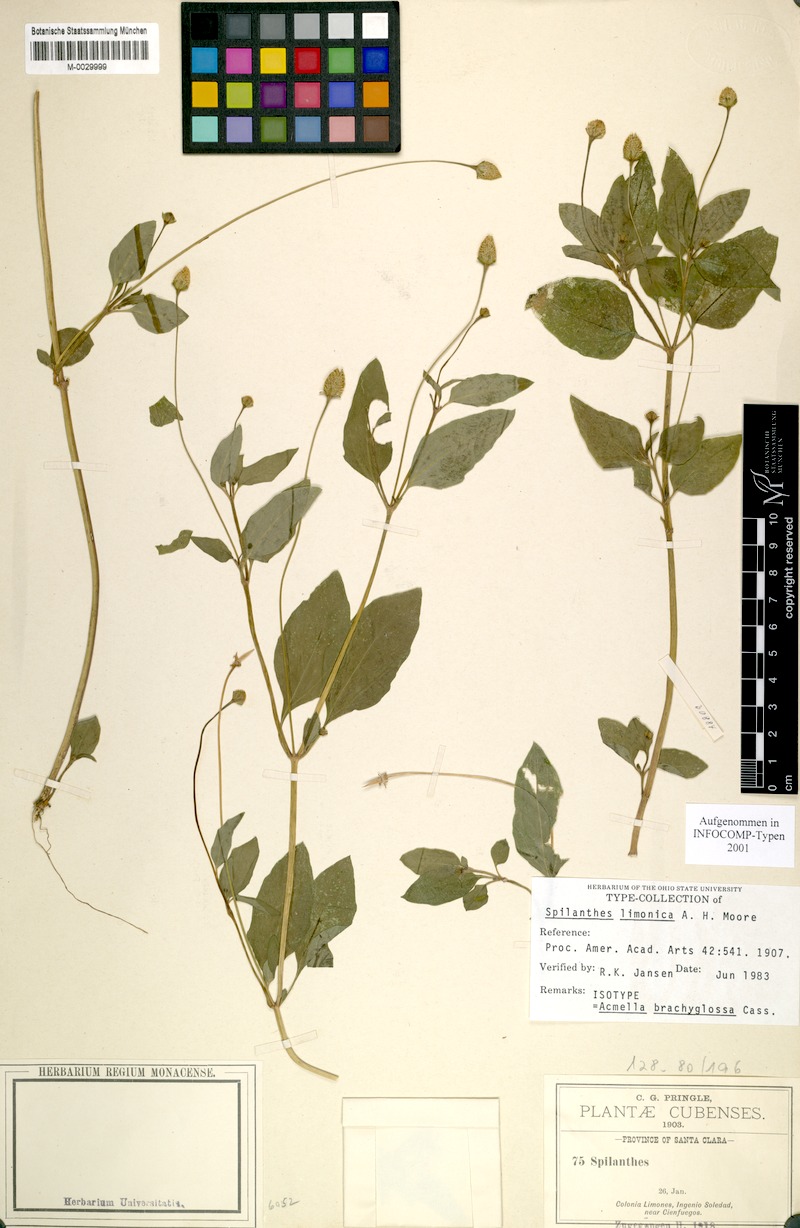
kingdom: Plantae
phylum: Tracheophyta
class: Magnoliopsida
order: Asterales
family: Asteraceae
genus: Acmella
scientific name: Acmella brachyglossa
